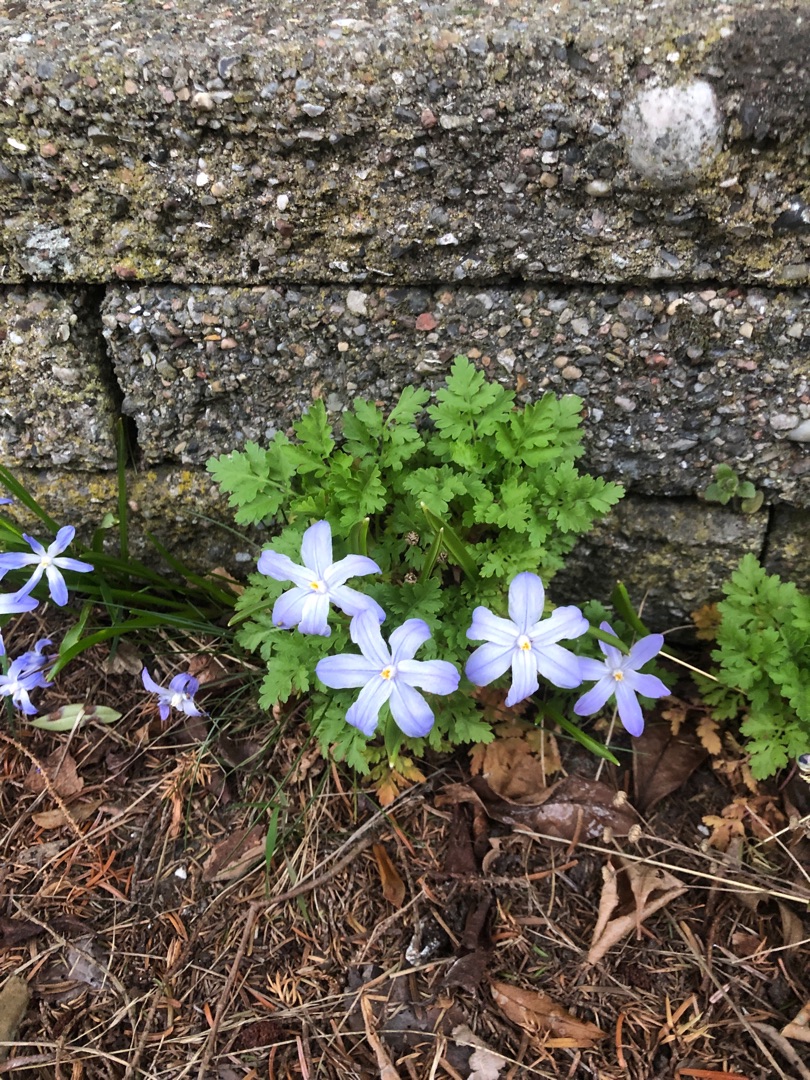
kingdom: Plantae
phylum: Tracheophyta
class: Liliopsida
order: Asparagales
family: Asparagaceae
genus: Scilla
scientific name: Scilla luciliae
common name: Stor snepryd
